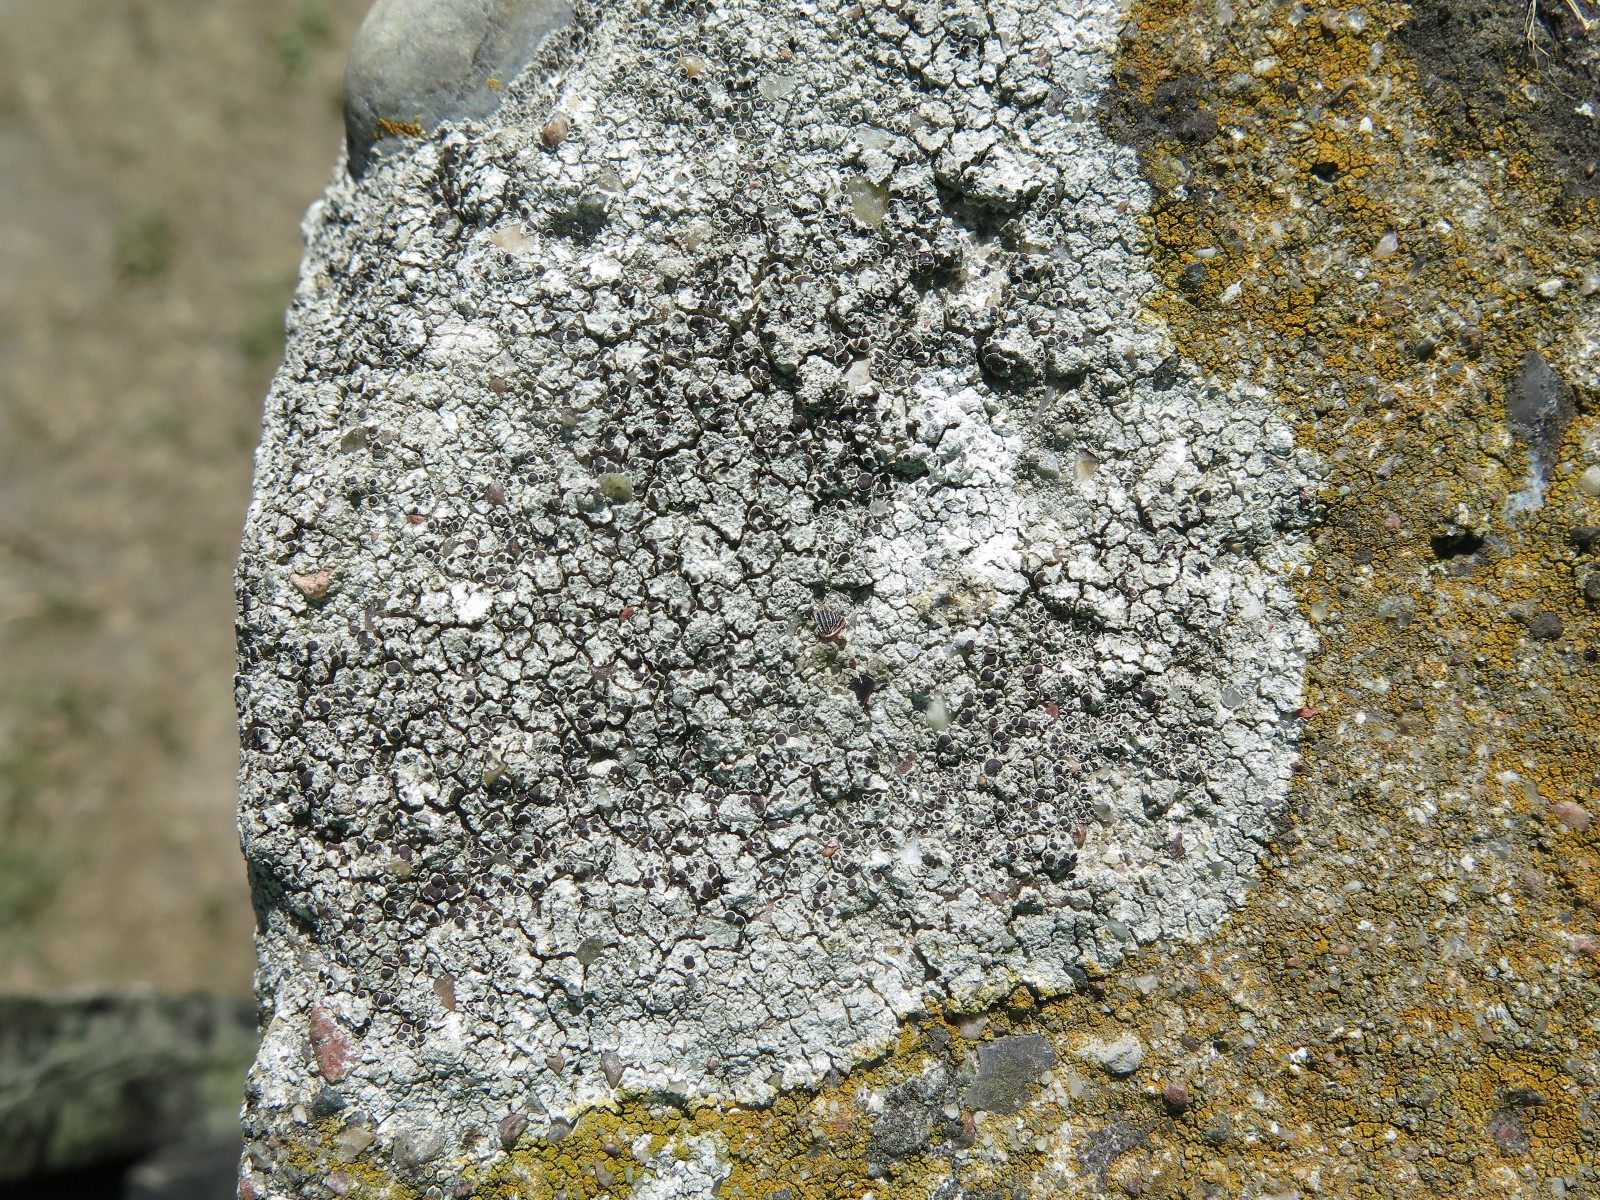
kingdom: Fungi
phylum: Ascomycota
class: Lecanoromycetes
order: Lecanorales
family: Lecanoraceae
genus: Lecanora
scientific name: Lecanora campestris
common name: mur-kantskivelav
